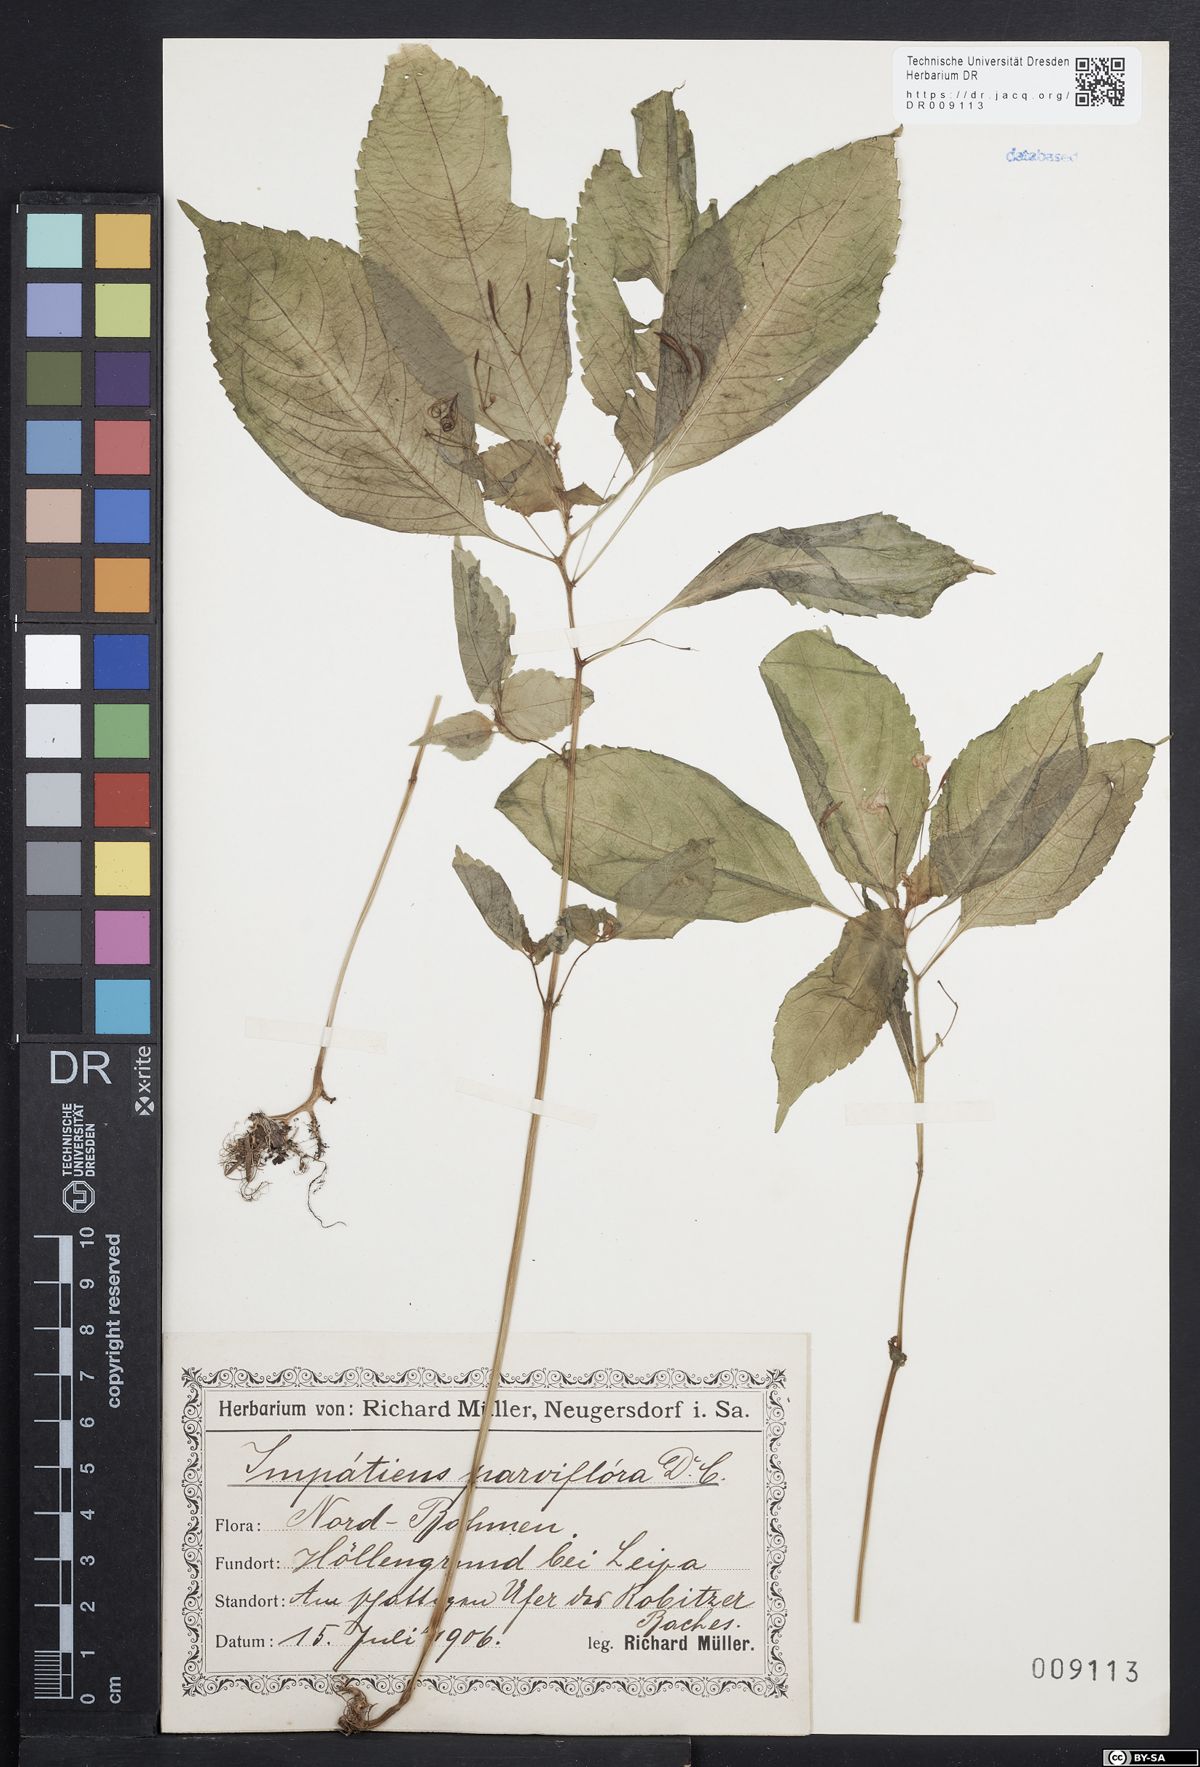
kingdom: Plantae
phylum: Tracheophyta
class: Magnoliopsida
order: Ericales
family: Balsaminaceae
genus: Impatiens
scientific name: Impatiens parviflora
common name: Small balsam
